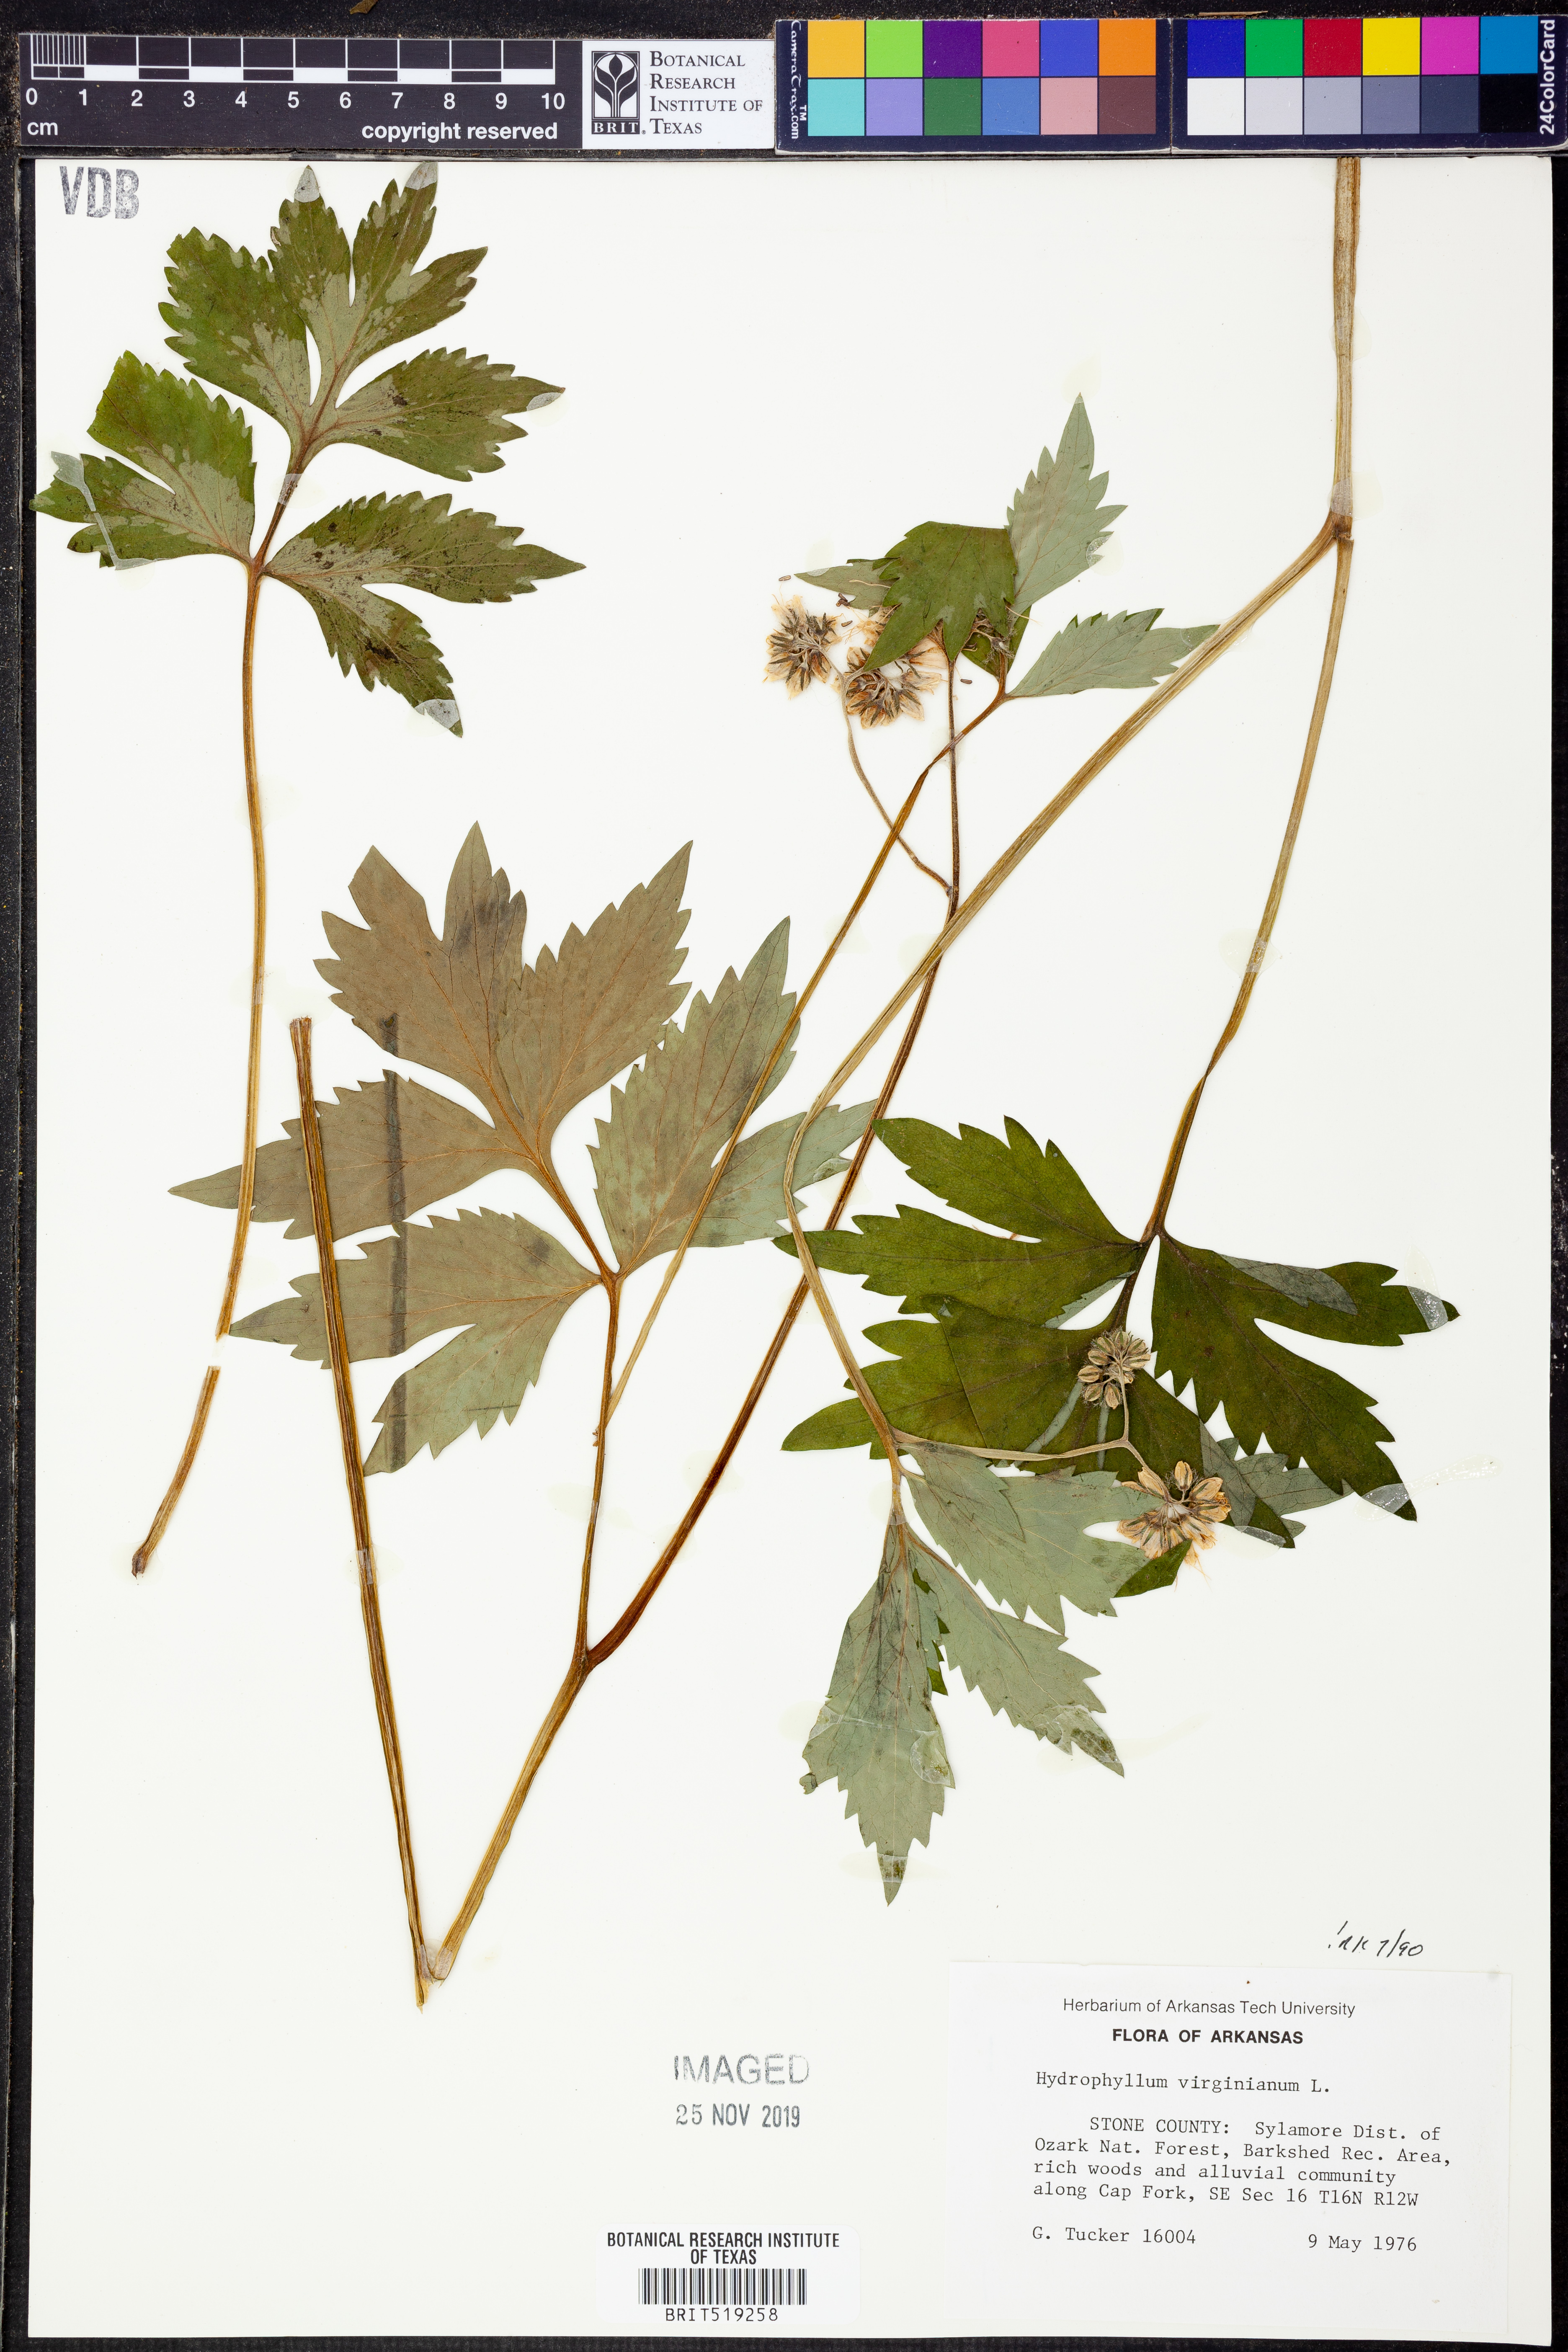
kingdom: Plantae
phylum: Tracheophyta
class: Magnoliopsida
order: Boraginales
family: Hydrophyllaceae
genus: Hydrophyllum
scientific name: Hydrophyllum virginianum
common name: Virginia waterleaf
